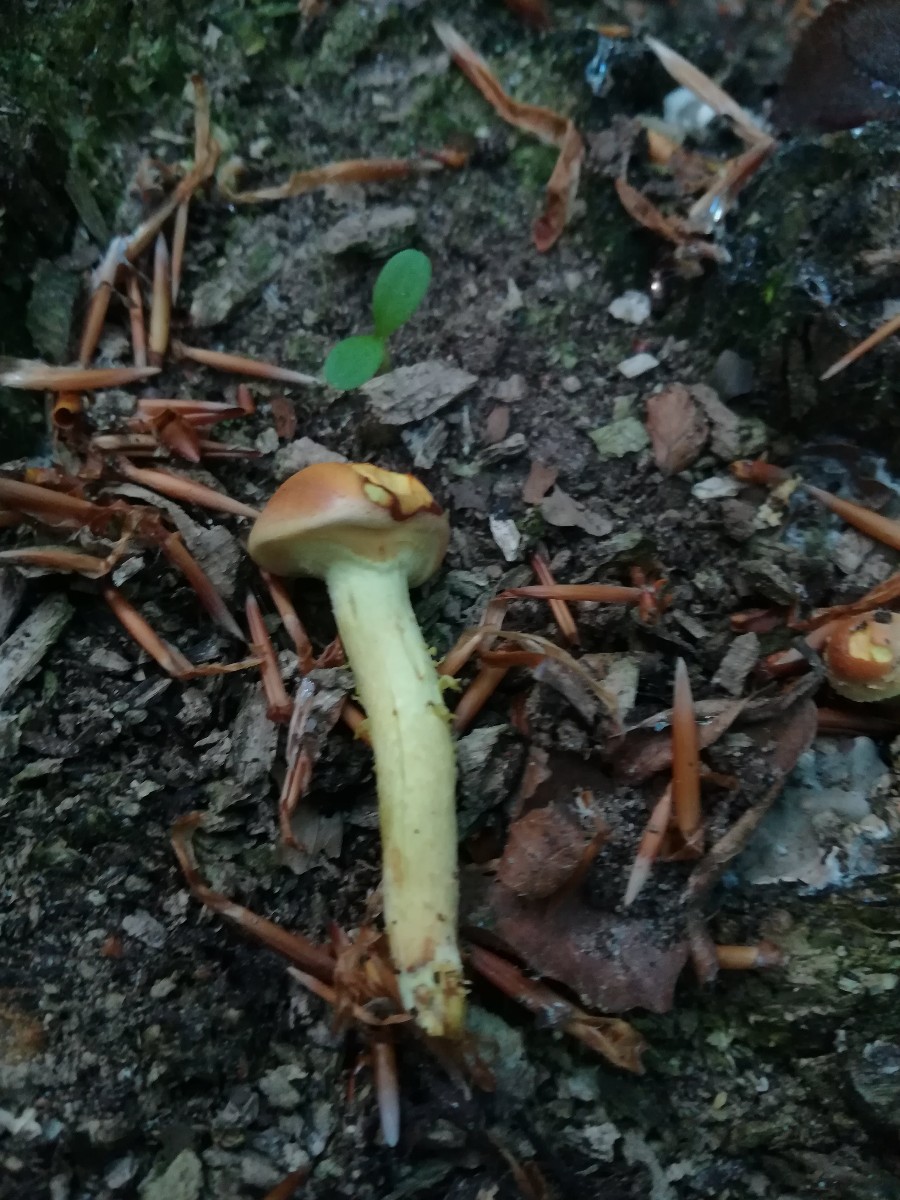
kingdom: Fungi
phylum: Basidiomycota
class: Agaricomycetes
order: Agaricales
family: Strophariaceae
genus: Hypholoma
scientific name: Hypholoma fasciculare
